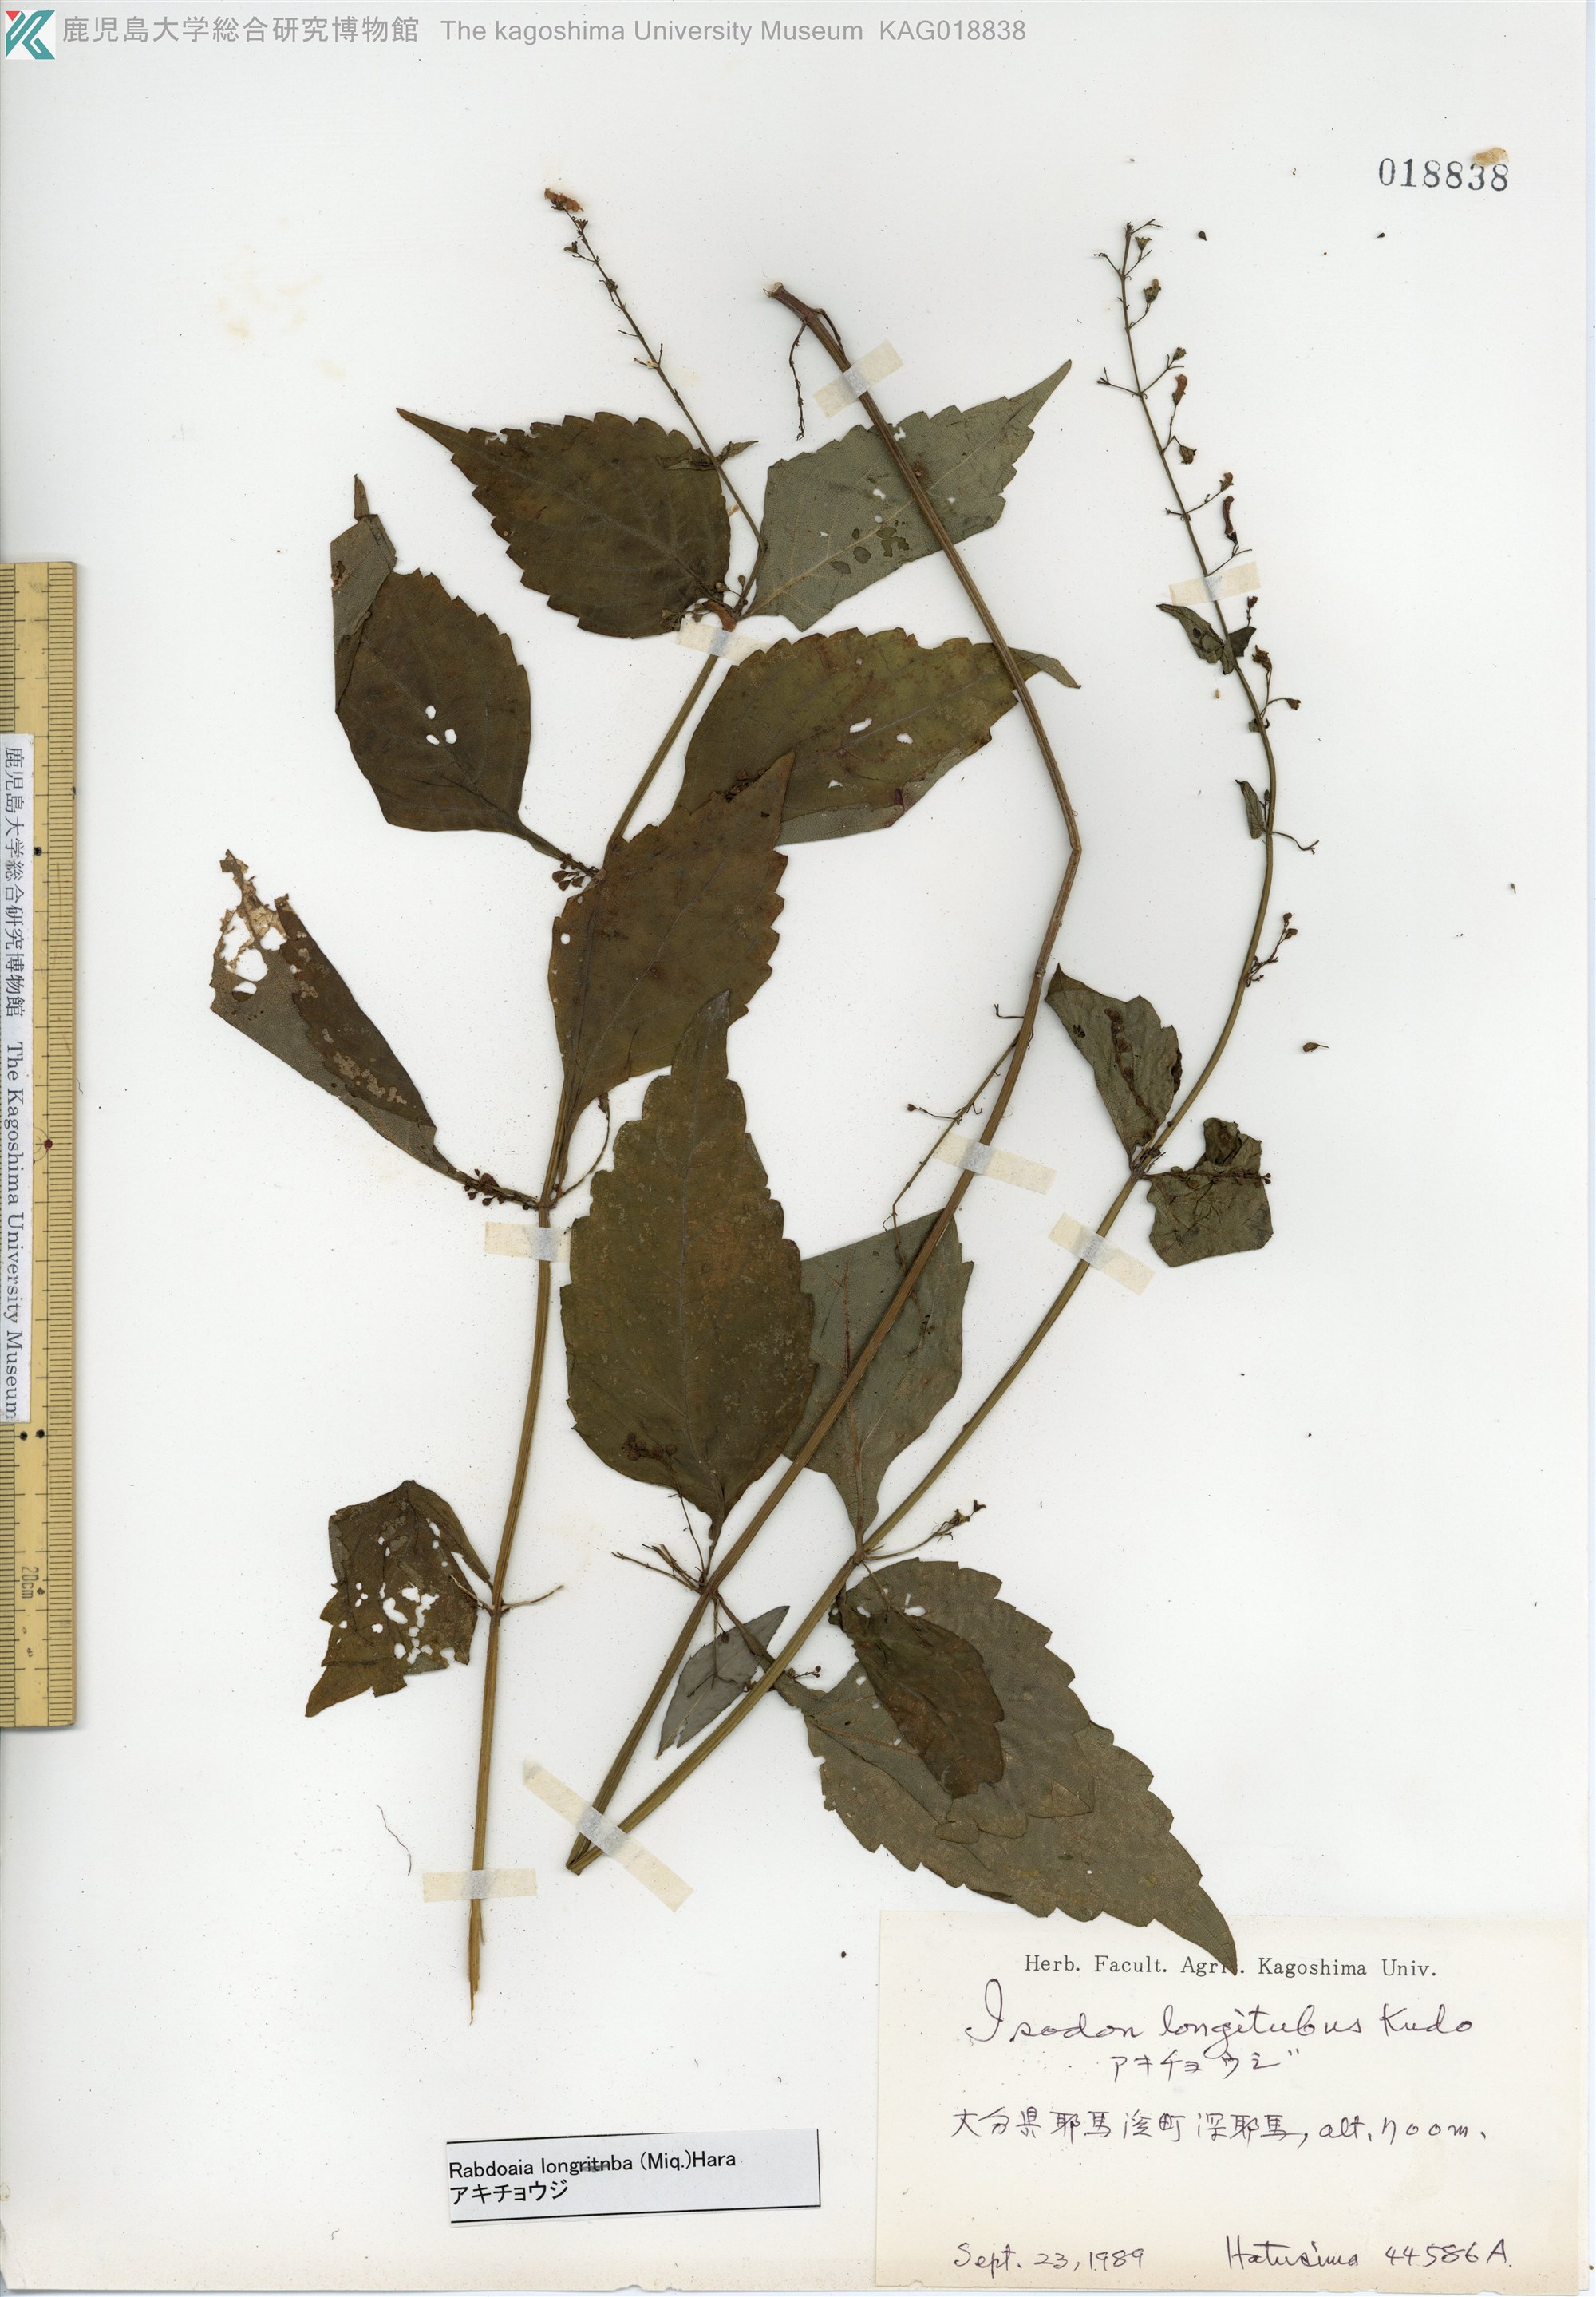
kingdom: Plantae
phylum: Tracheophyta
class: Magnoliopsida
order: Lamiales
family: Lamiaceae
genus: Isodon
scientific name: Isodon longitubus
